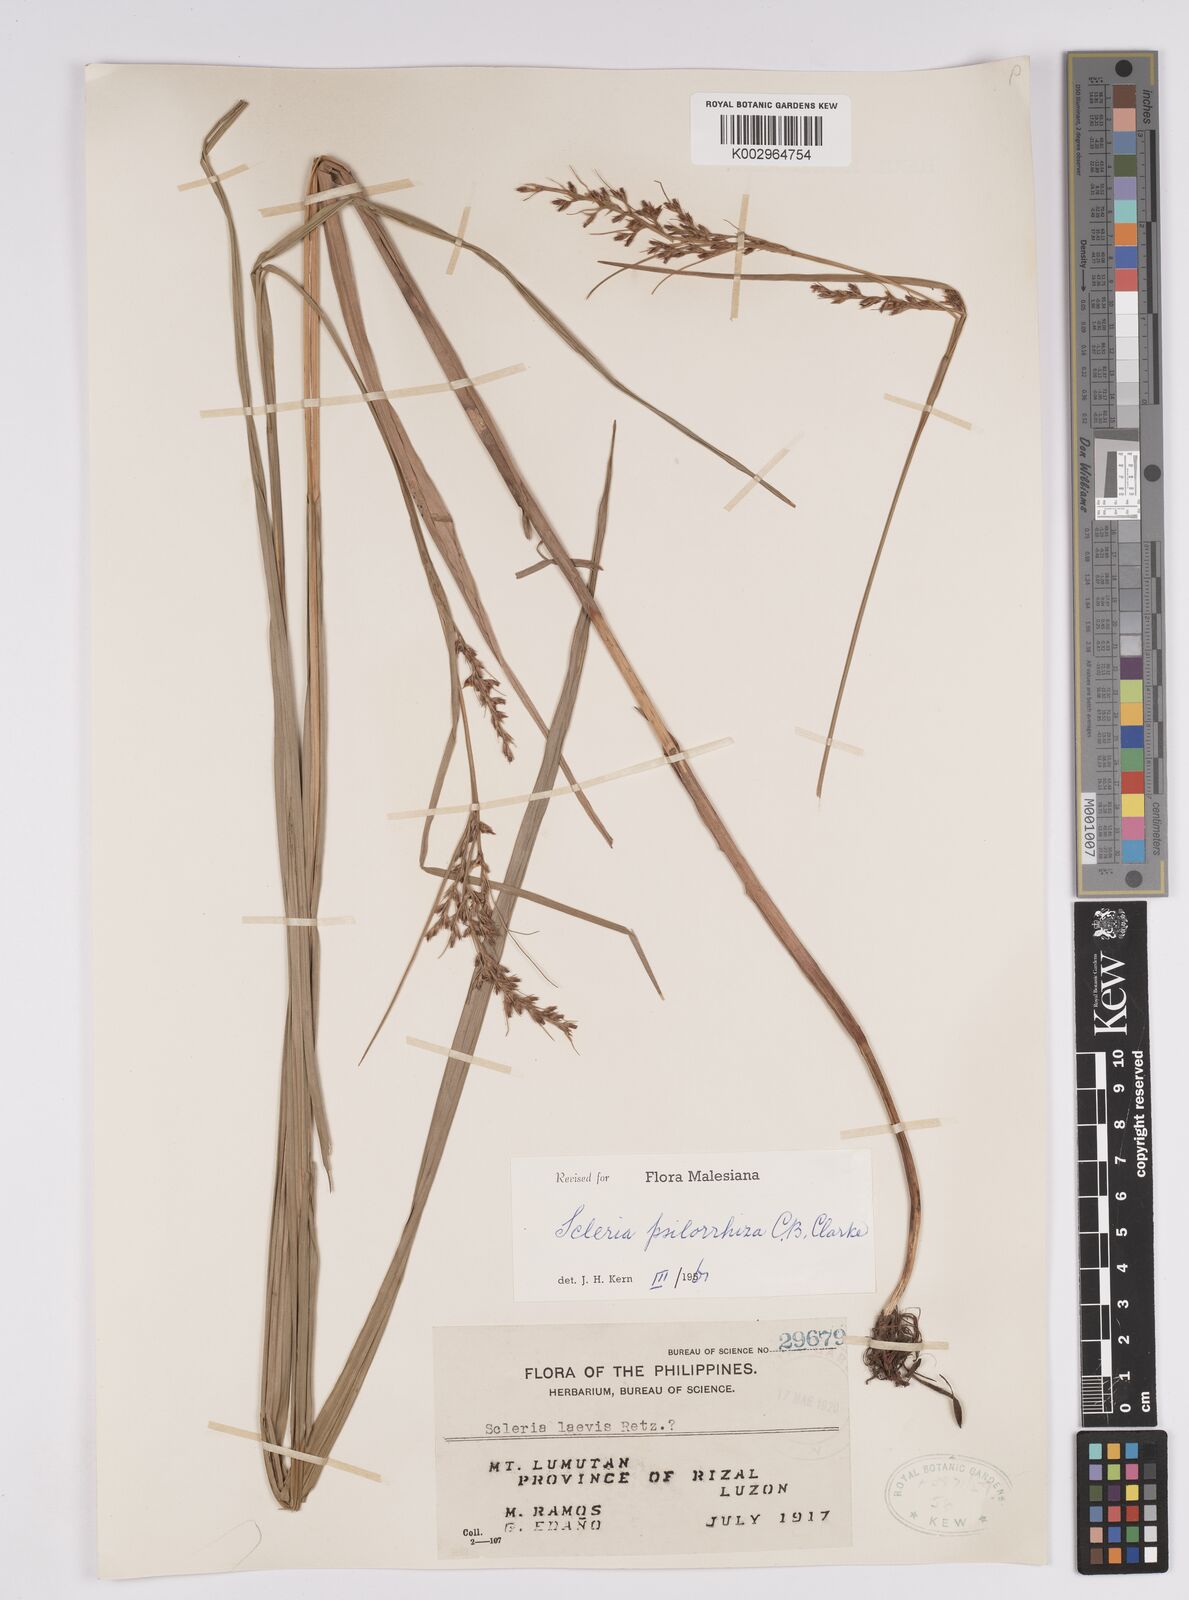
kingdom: Plantae
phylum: Tracheophyta
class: Liliopsida
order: Poales
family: Cyperaceae
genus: Scleria
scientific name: Scleria psilorrhiza
